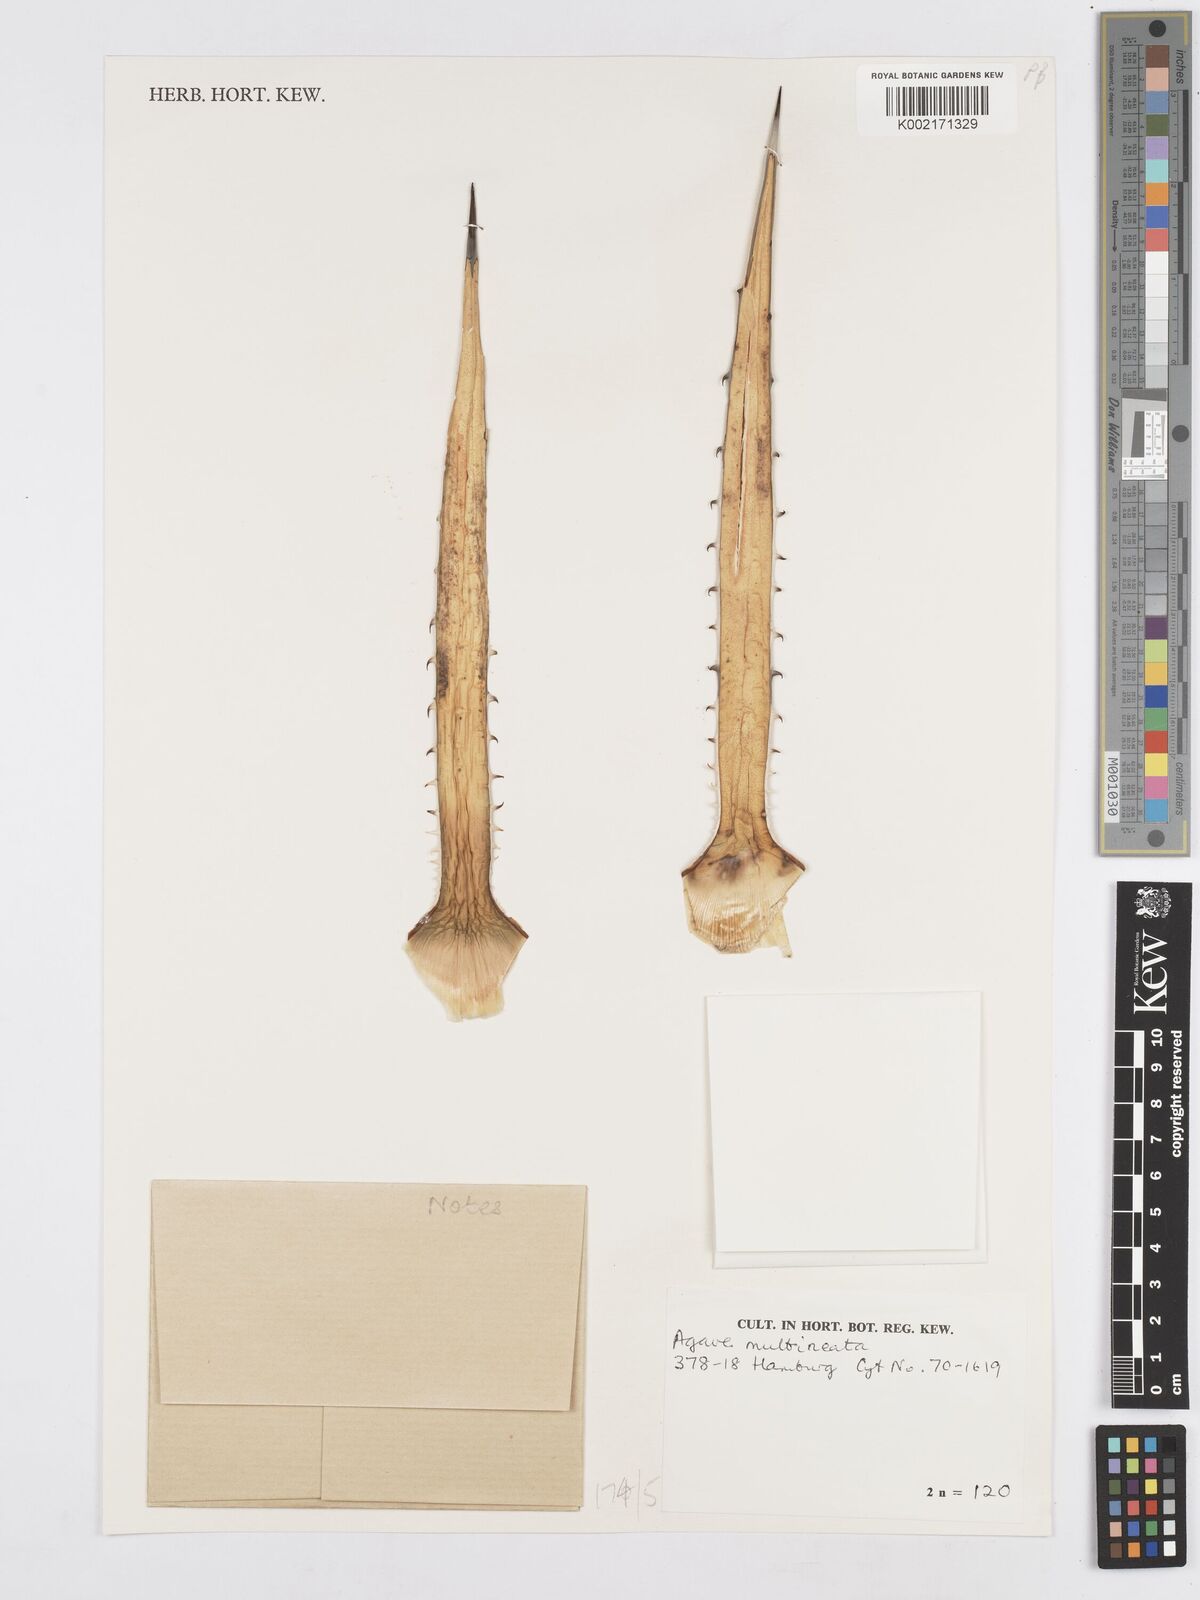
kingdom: Plantae
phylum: Tracheophyta
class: Liliopsida
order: Asparagales
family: Asparagaceae
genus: Agave
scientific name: Agave lechuguilla
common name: Lecheguilla agave
